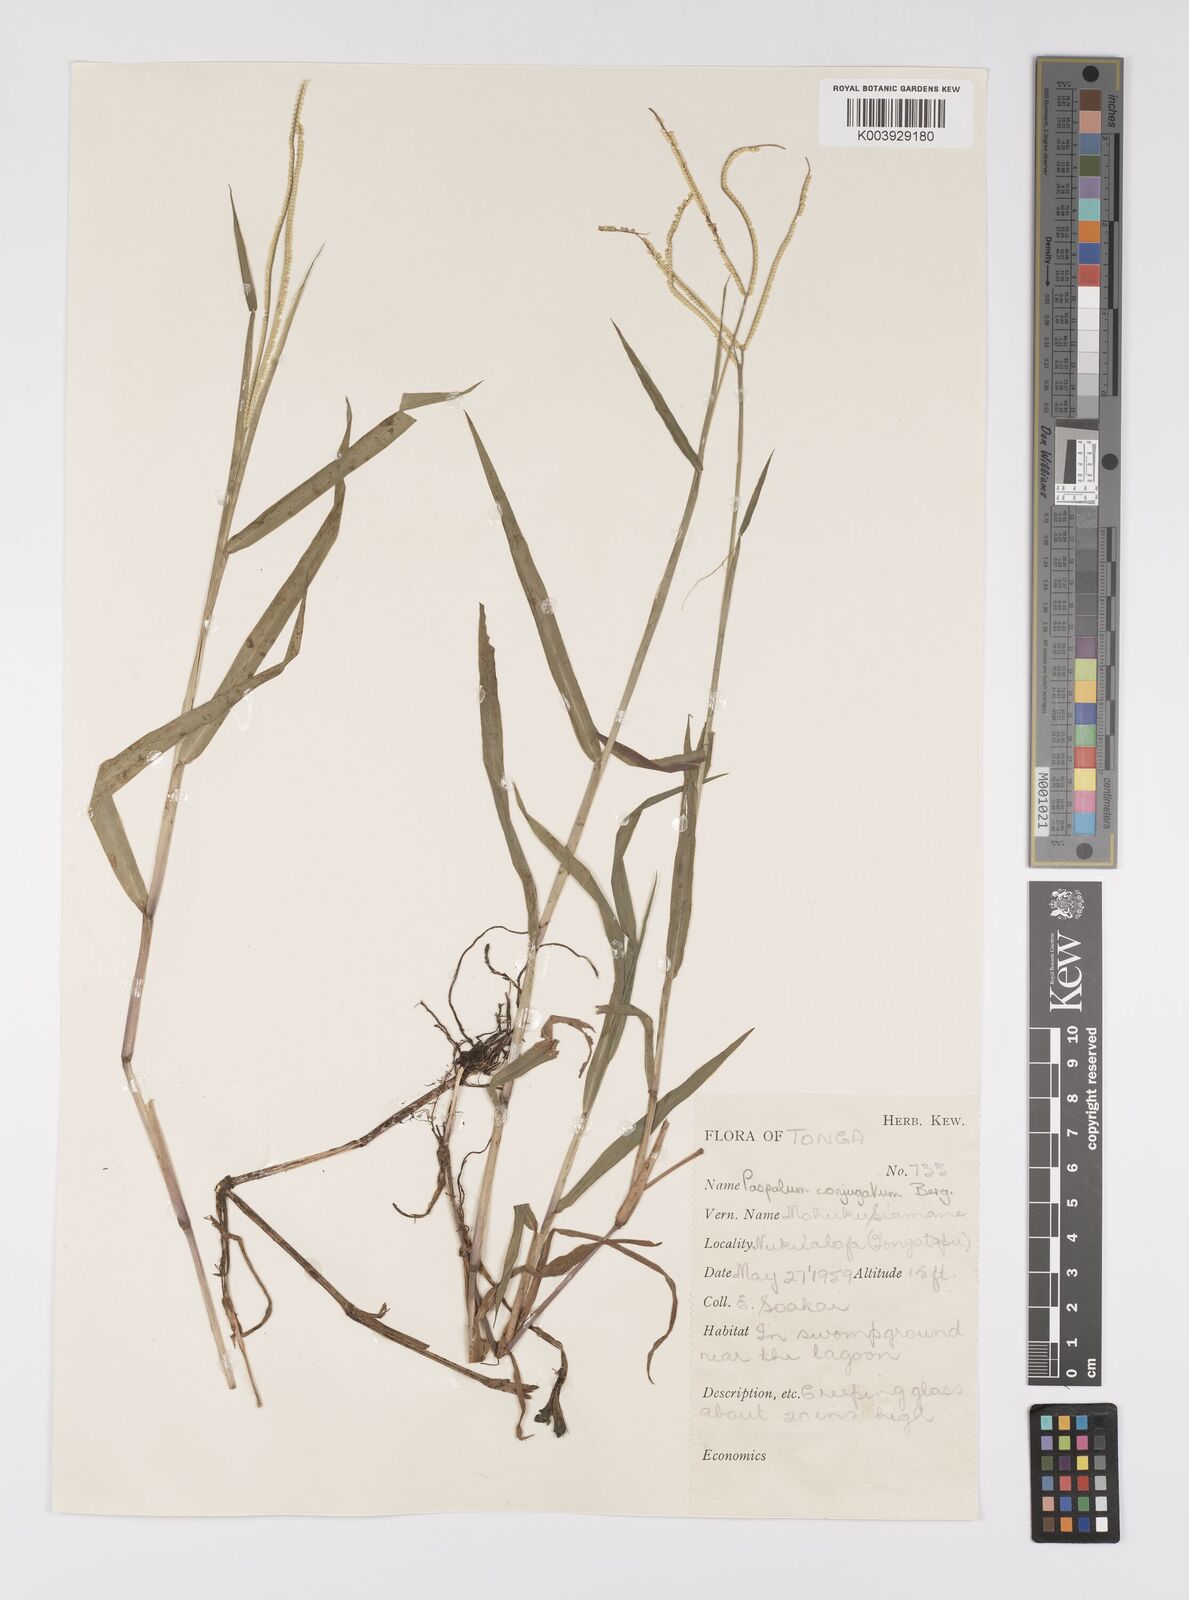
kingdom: Plantae
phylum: Tracheophyta
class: Liliopsida
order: Poales
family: Poaceae
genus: Paspalum
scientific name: Paspalum conjugatum
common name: Hilograss
